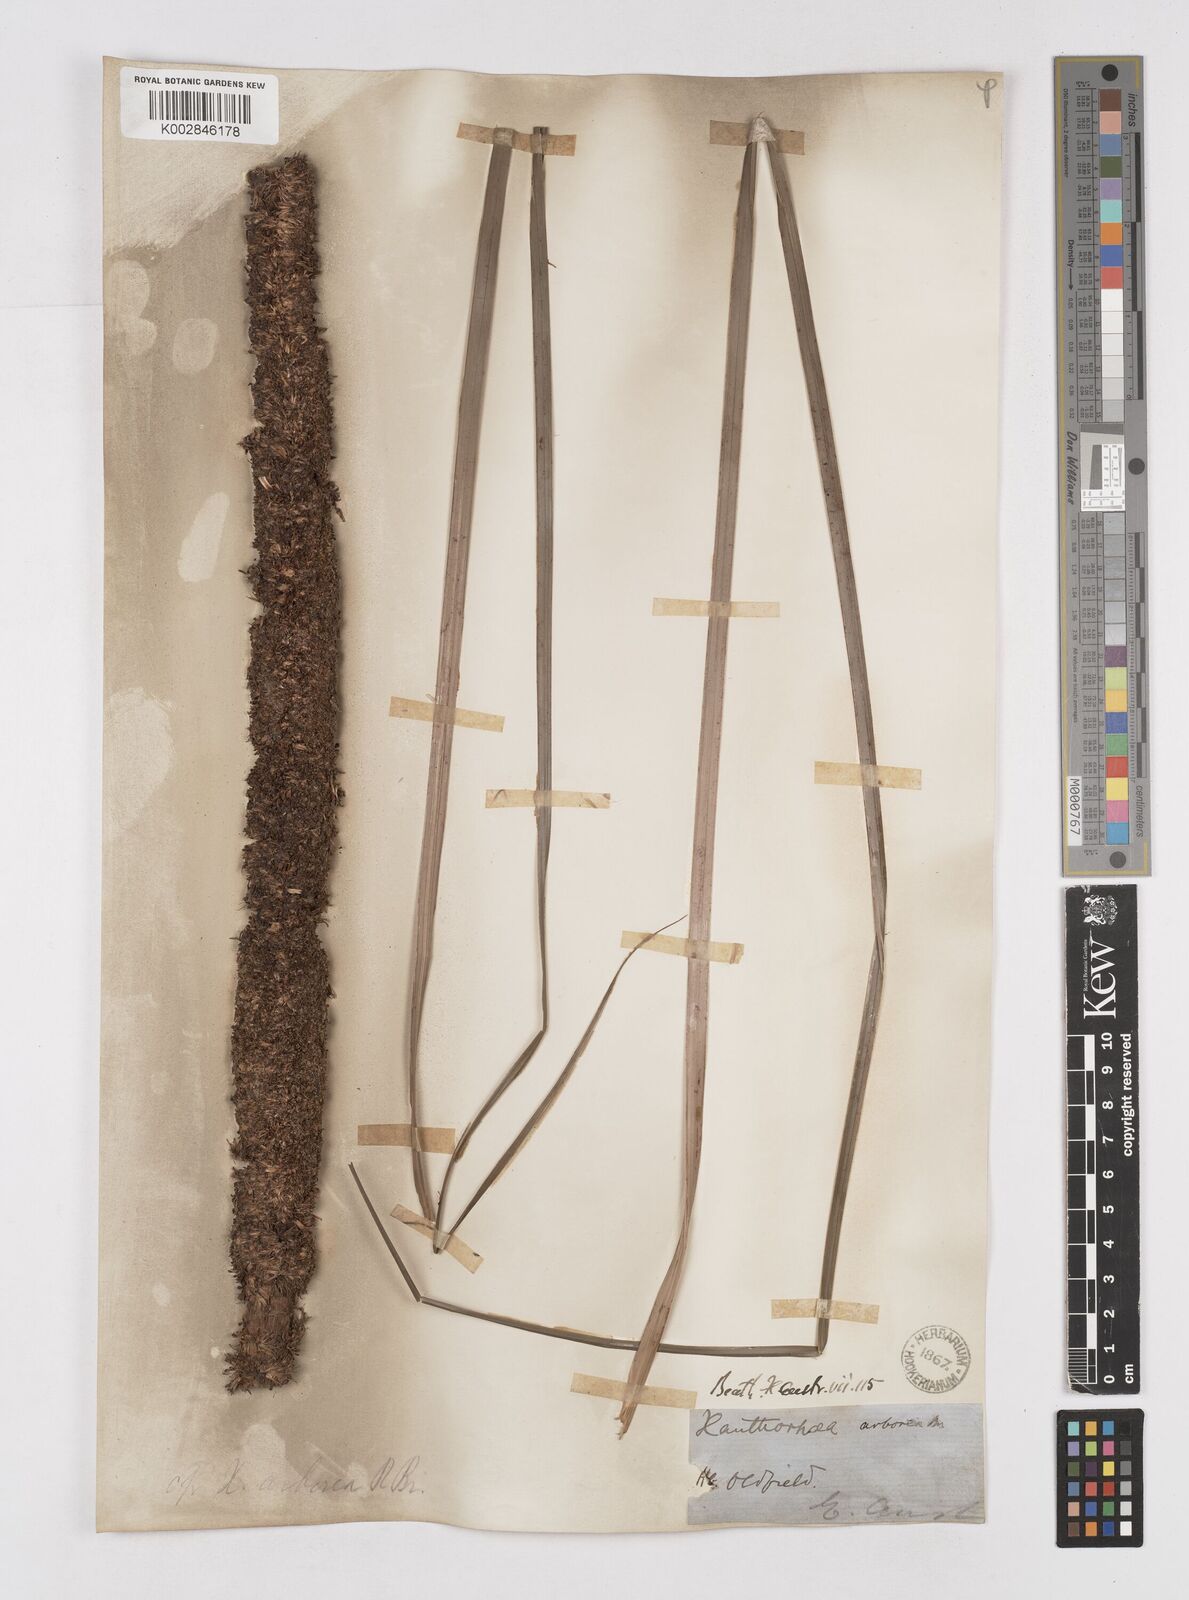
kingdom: Plantae
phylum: Tracheophyta
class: Liliopsida
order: Asparagales
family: Asphodelaceae
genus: Xanthorrhoea
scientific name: Xanthorrhoea arborea
